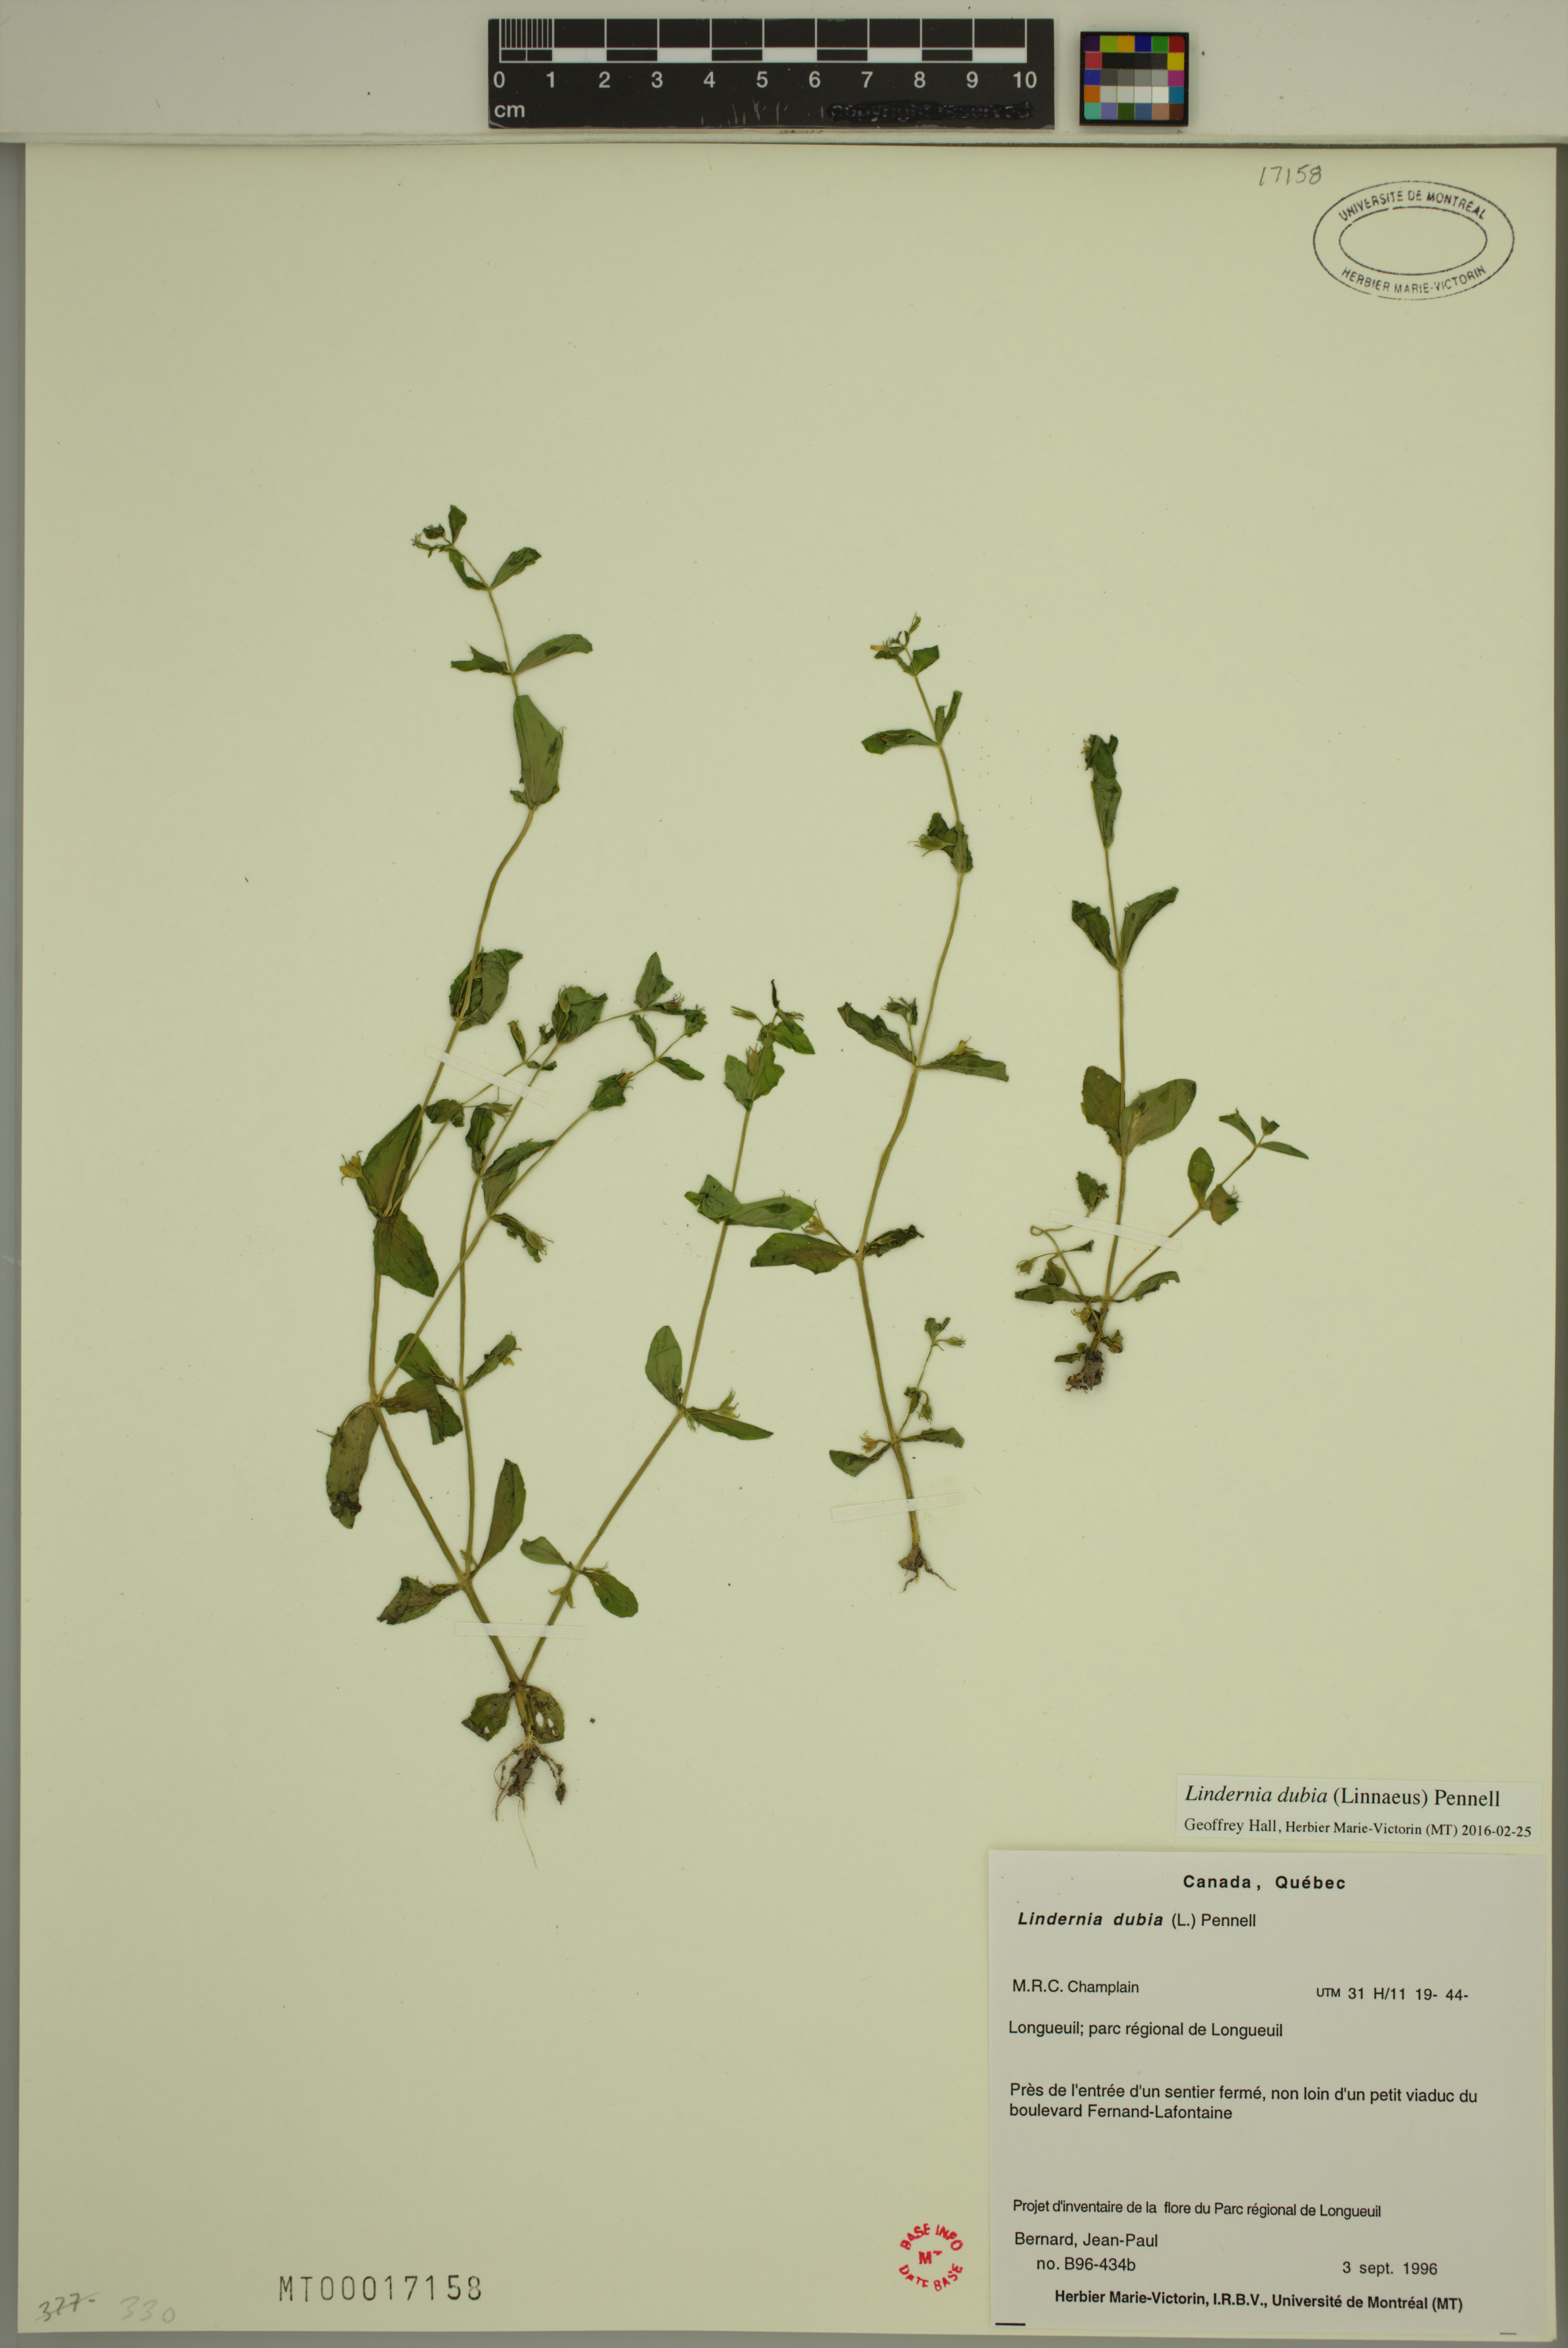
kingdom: Plantae
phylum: Tracheophyta
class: Magnoliopsida
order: Lamiales
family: Linderniaceae
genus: Lindernia
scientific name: Lindernia dubia
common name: Annual false pimpernel
